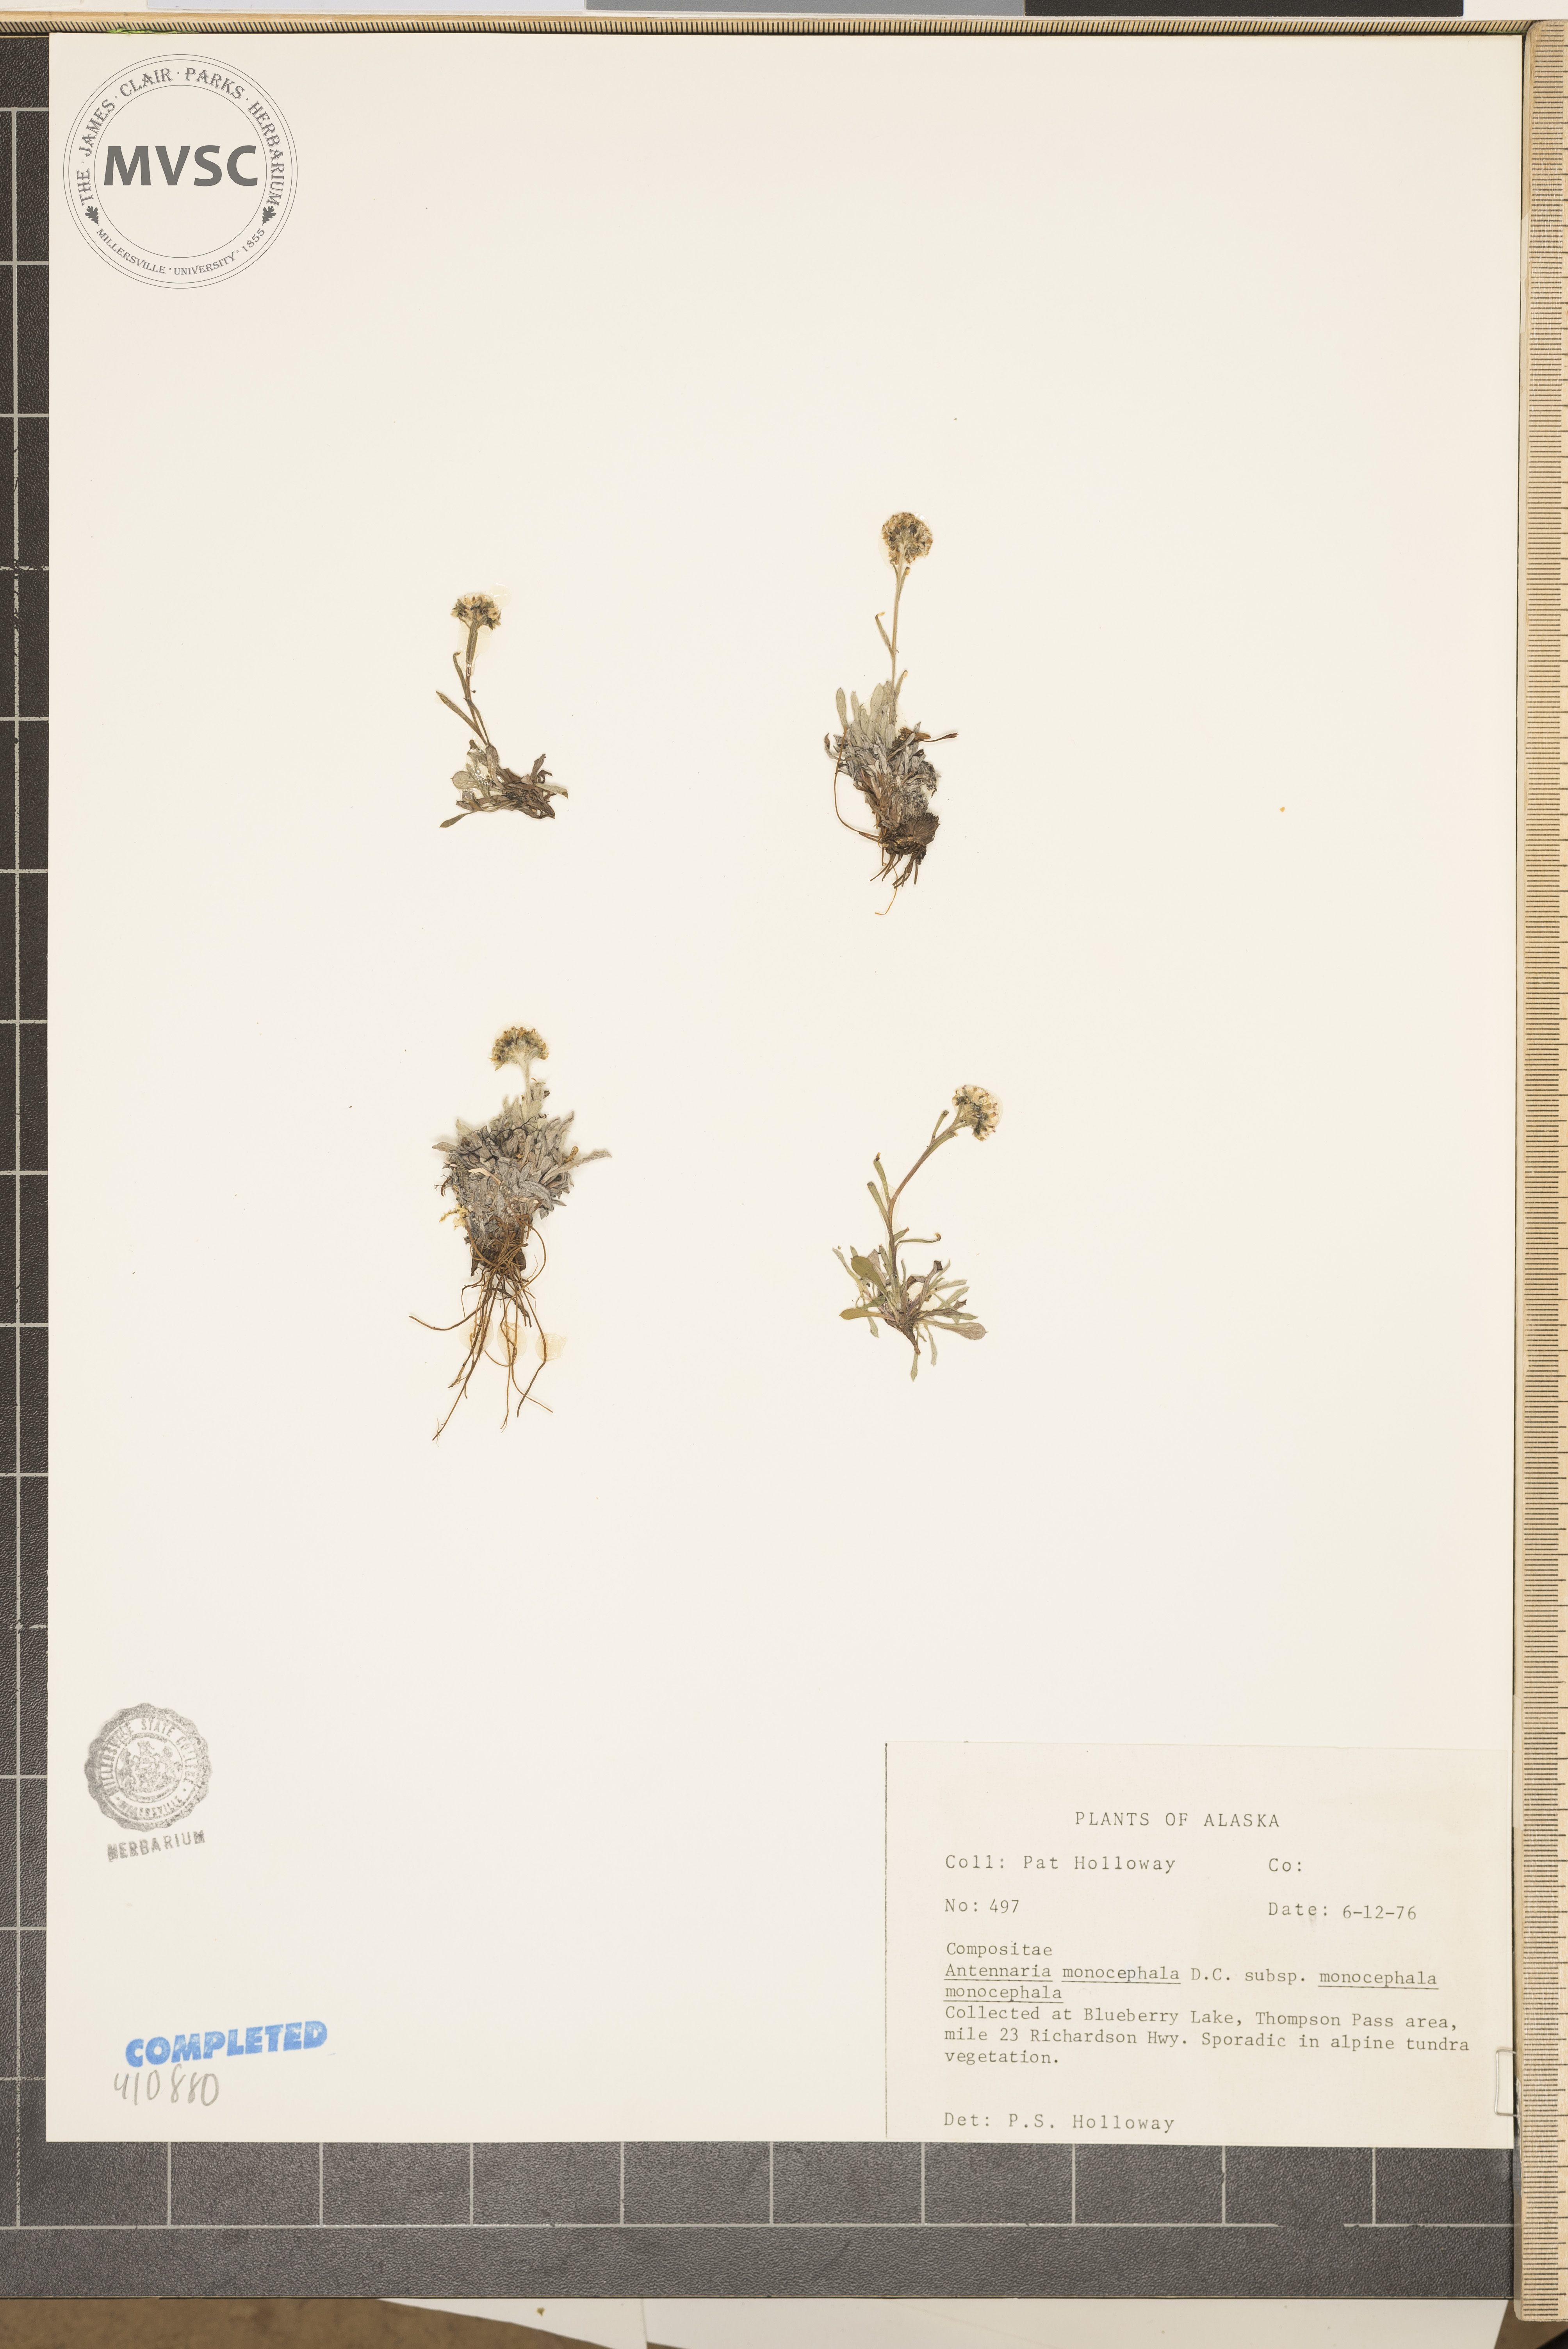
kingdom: Plantae
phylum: Tracheophyta
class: Magnoliopsida
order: Asterales
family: Asteraceae
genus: Antennaria
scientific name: Antennaria monocephala
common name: Pygmy pussytoes
